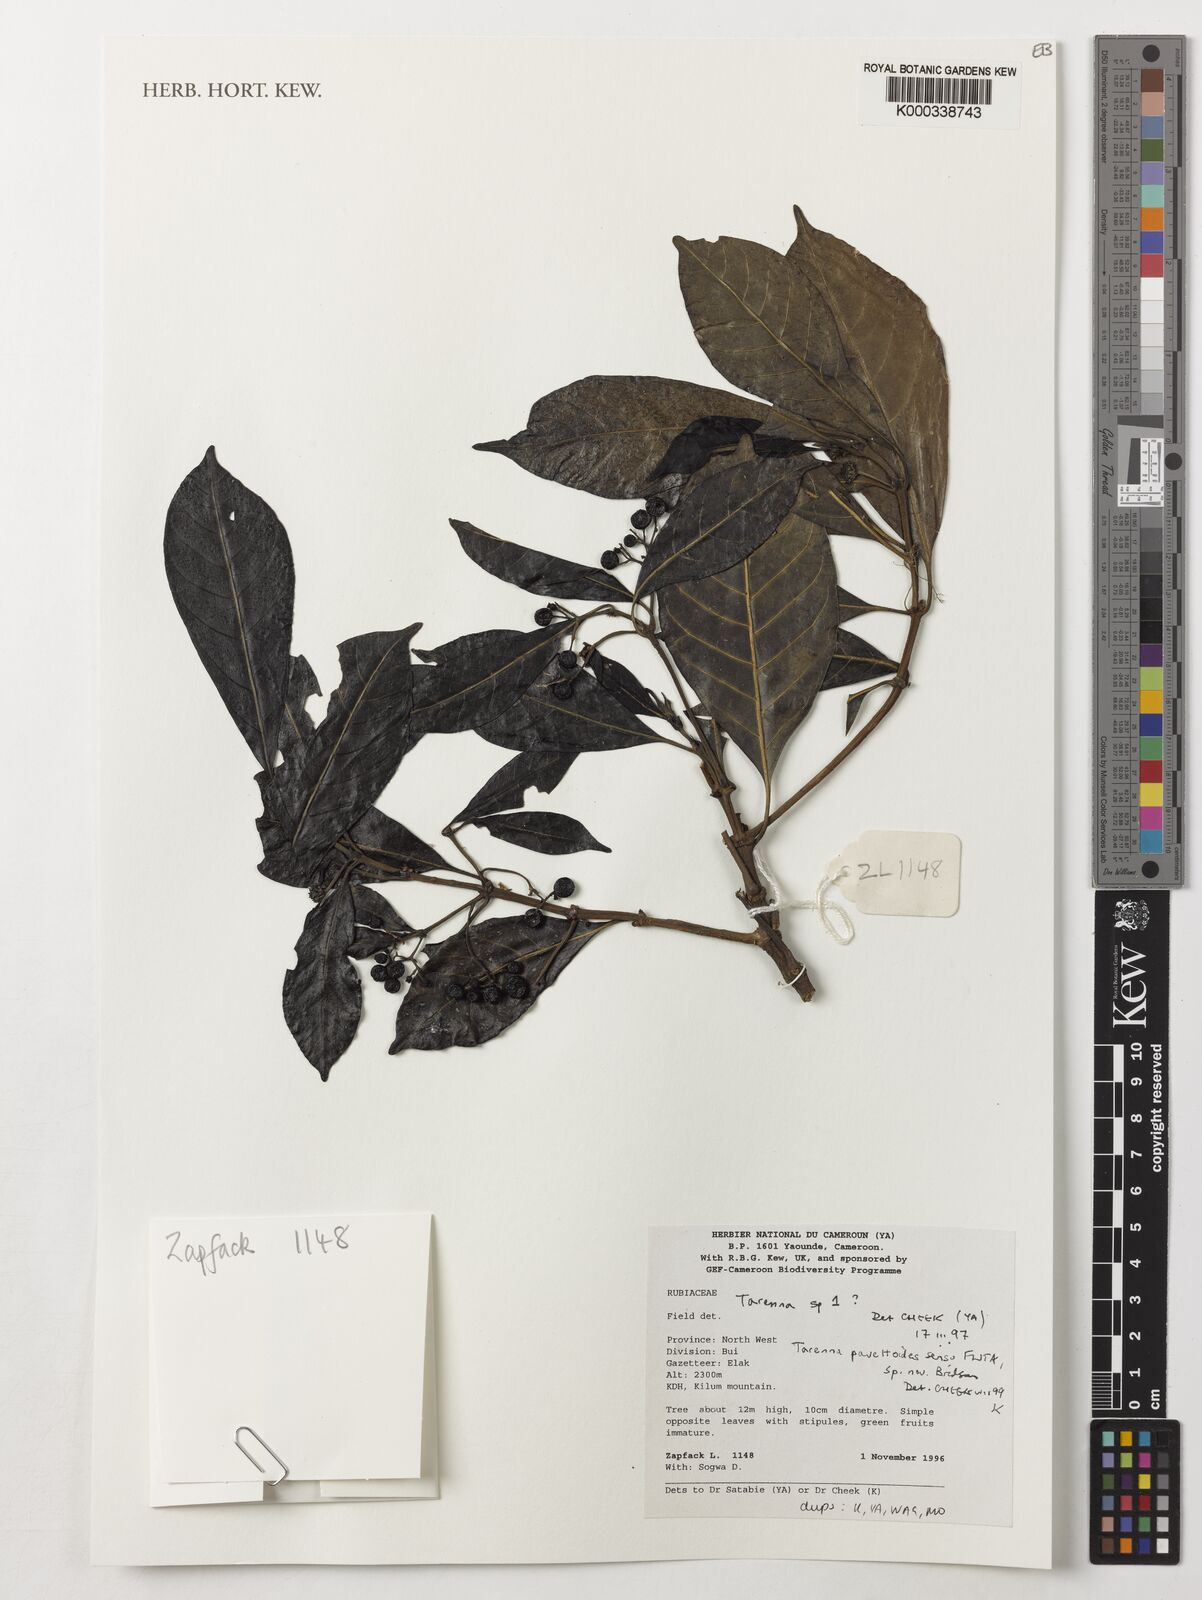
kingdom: Plantae
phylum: Tracheophyta
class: Magnoliopsida
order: Gentianales
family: Rubiaceae
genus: Tarenna
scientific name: Tarenna pavettoides
